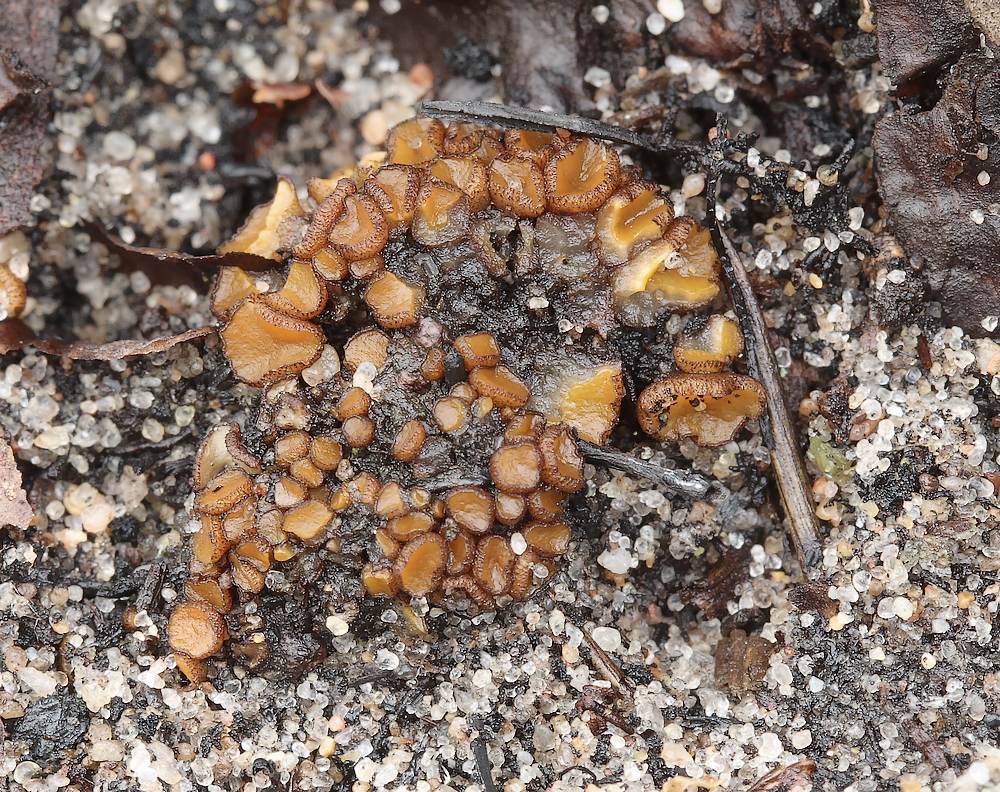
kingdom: Fungi
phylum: Ascomycota
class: Pezizomycetes
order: Pezizales
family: Pyronemataceae
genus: Anthracobia
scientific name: Anthracobia melaloma
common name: flamme-ildbæger
